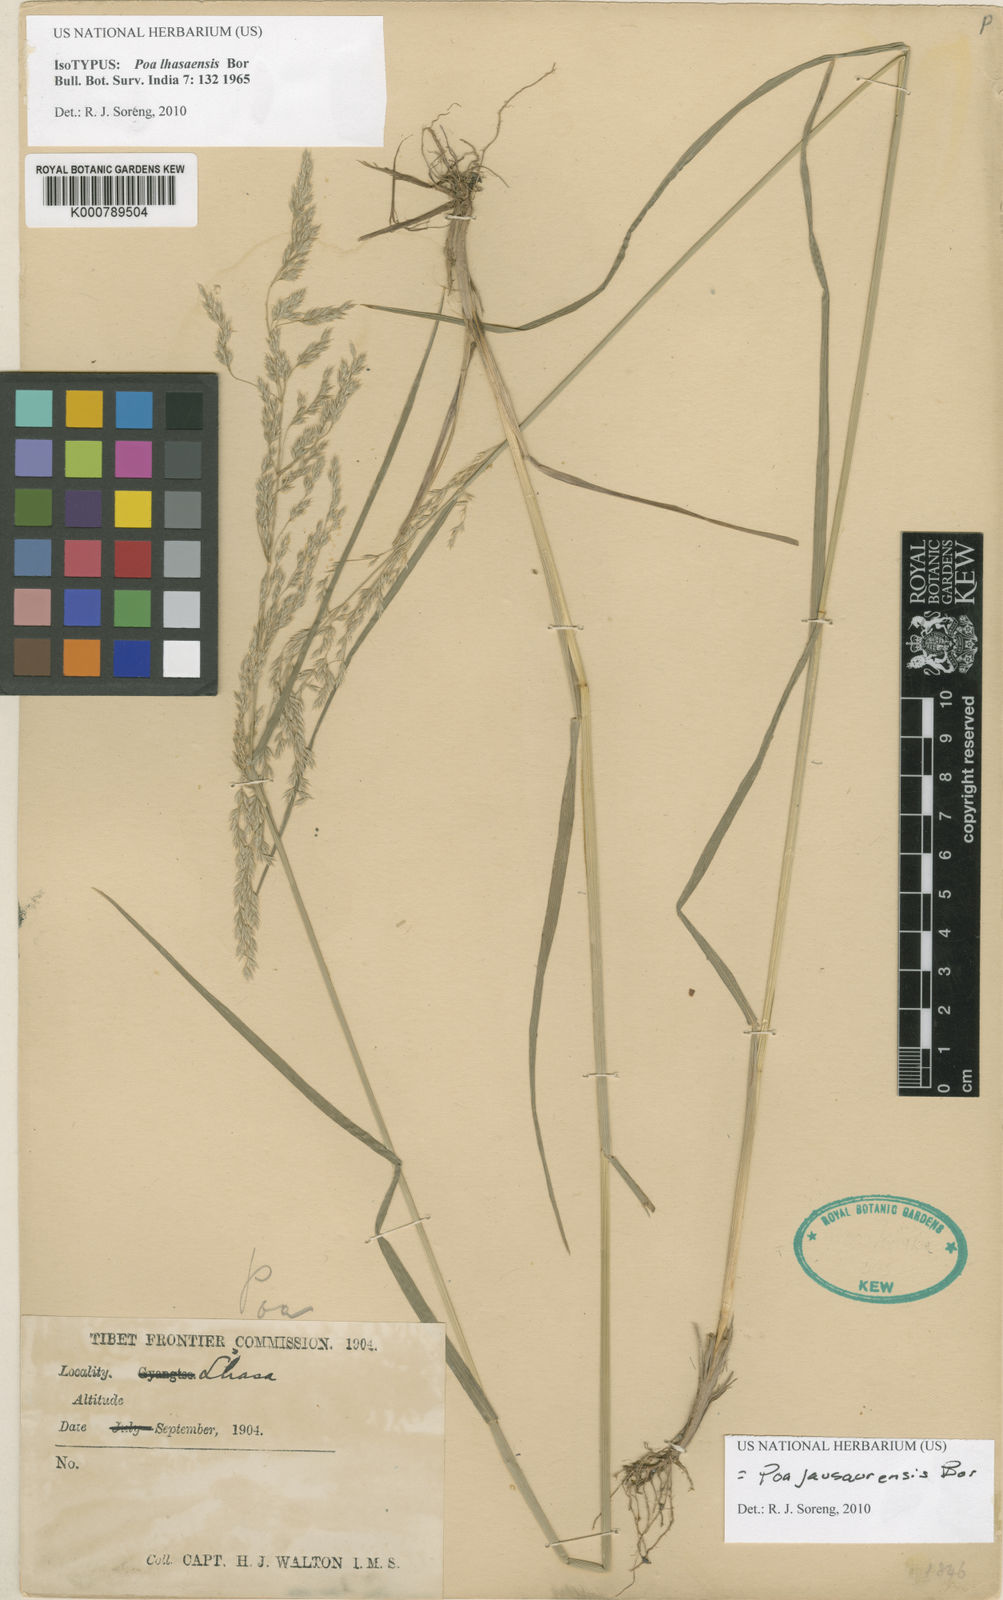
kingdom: Plantae
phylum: Tracheophyta
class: Liliopsida
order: Poales
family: Poaceae
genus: Poa
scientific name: Poa jaunsarensis
